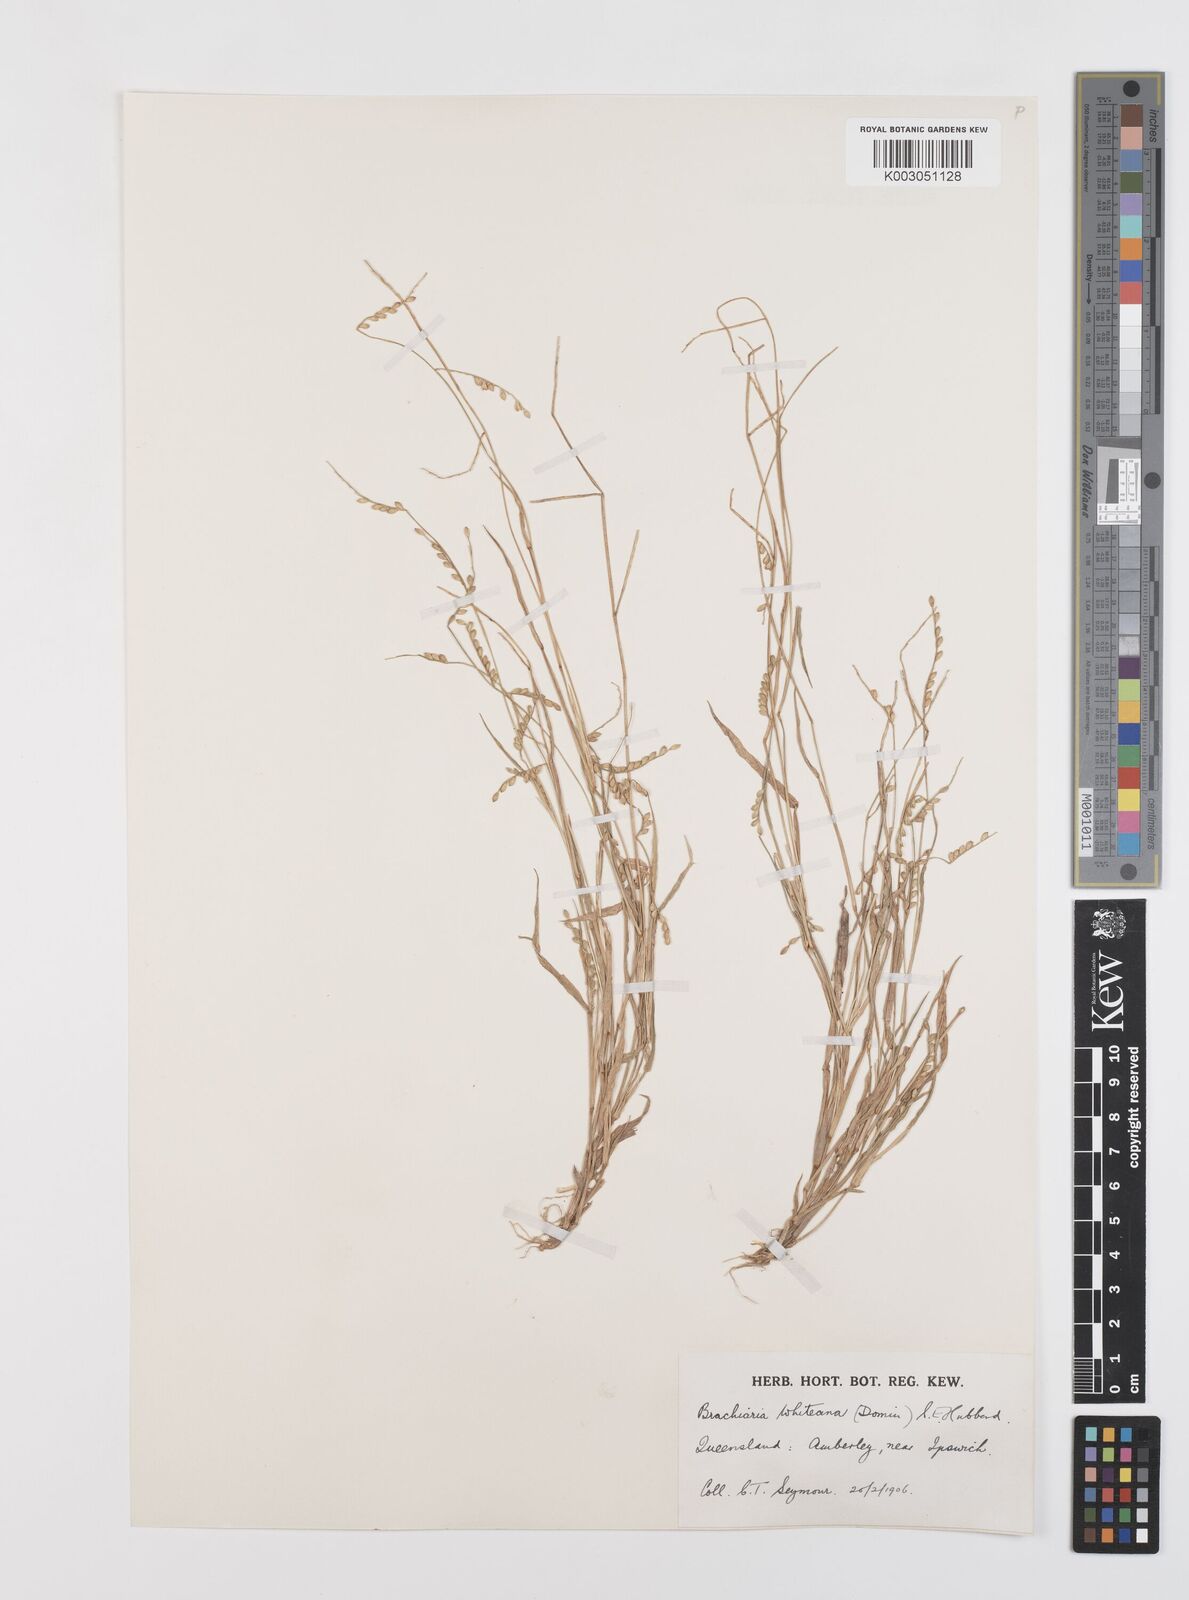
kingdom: Plantae
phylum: Tracheophyta
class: Liliopsida
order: Poales
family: Poaceae
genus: Urochloa
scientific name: Urochloa whiteana
